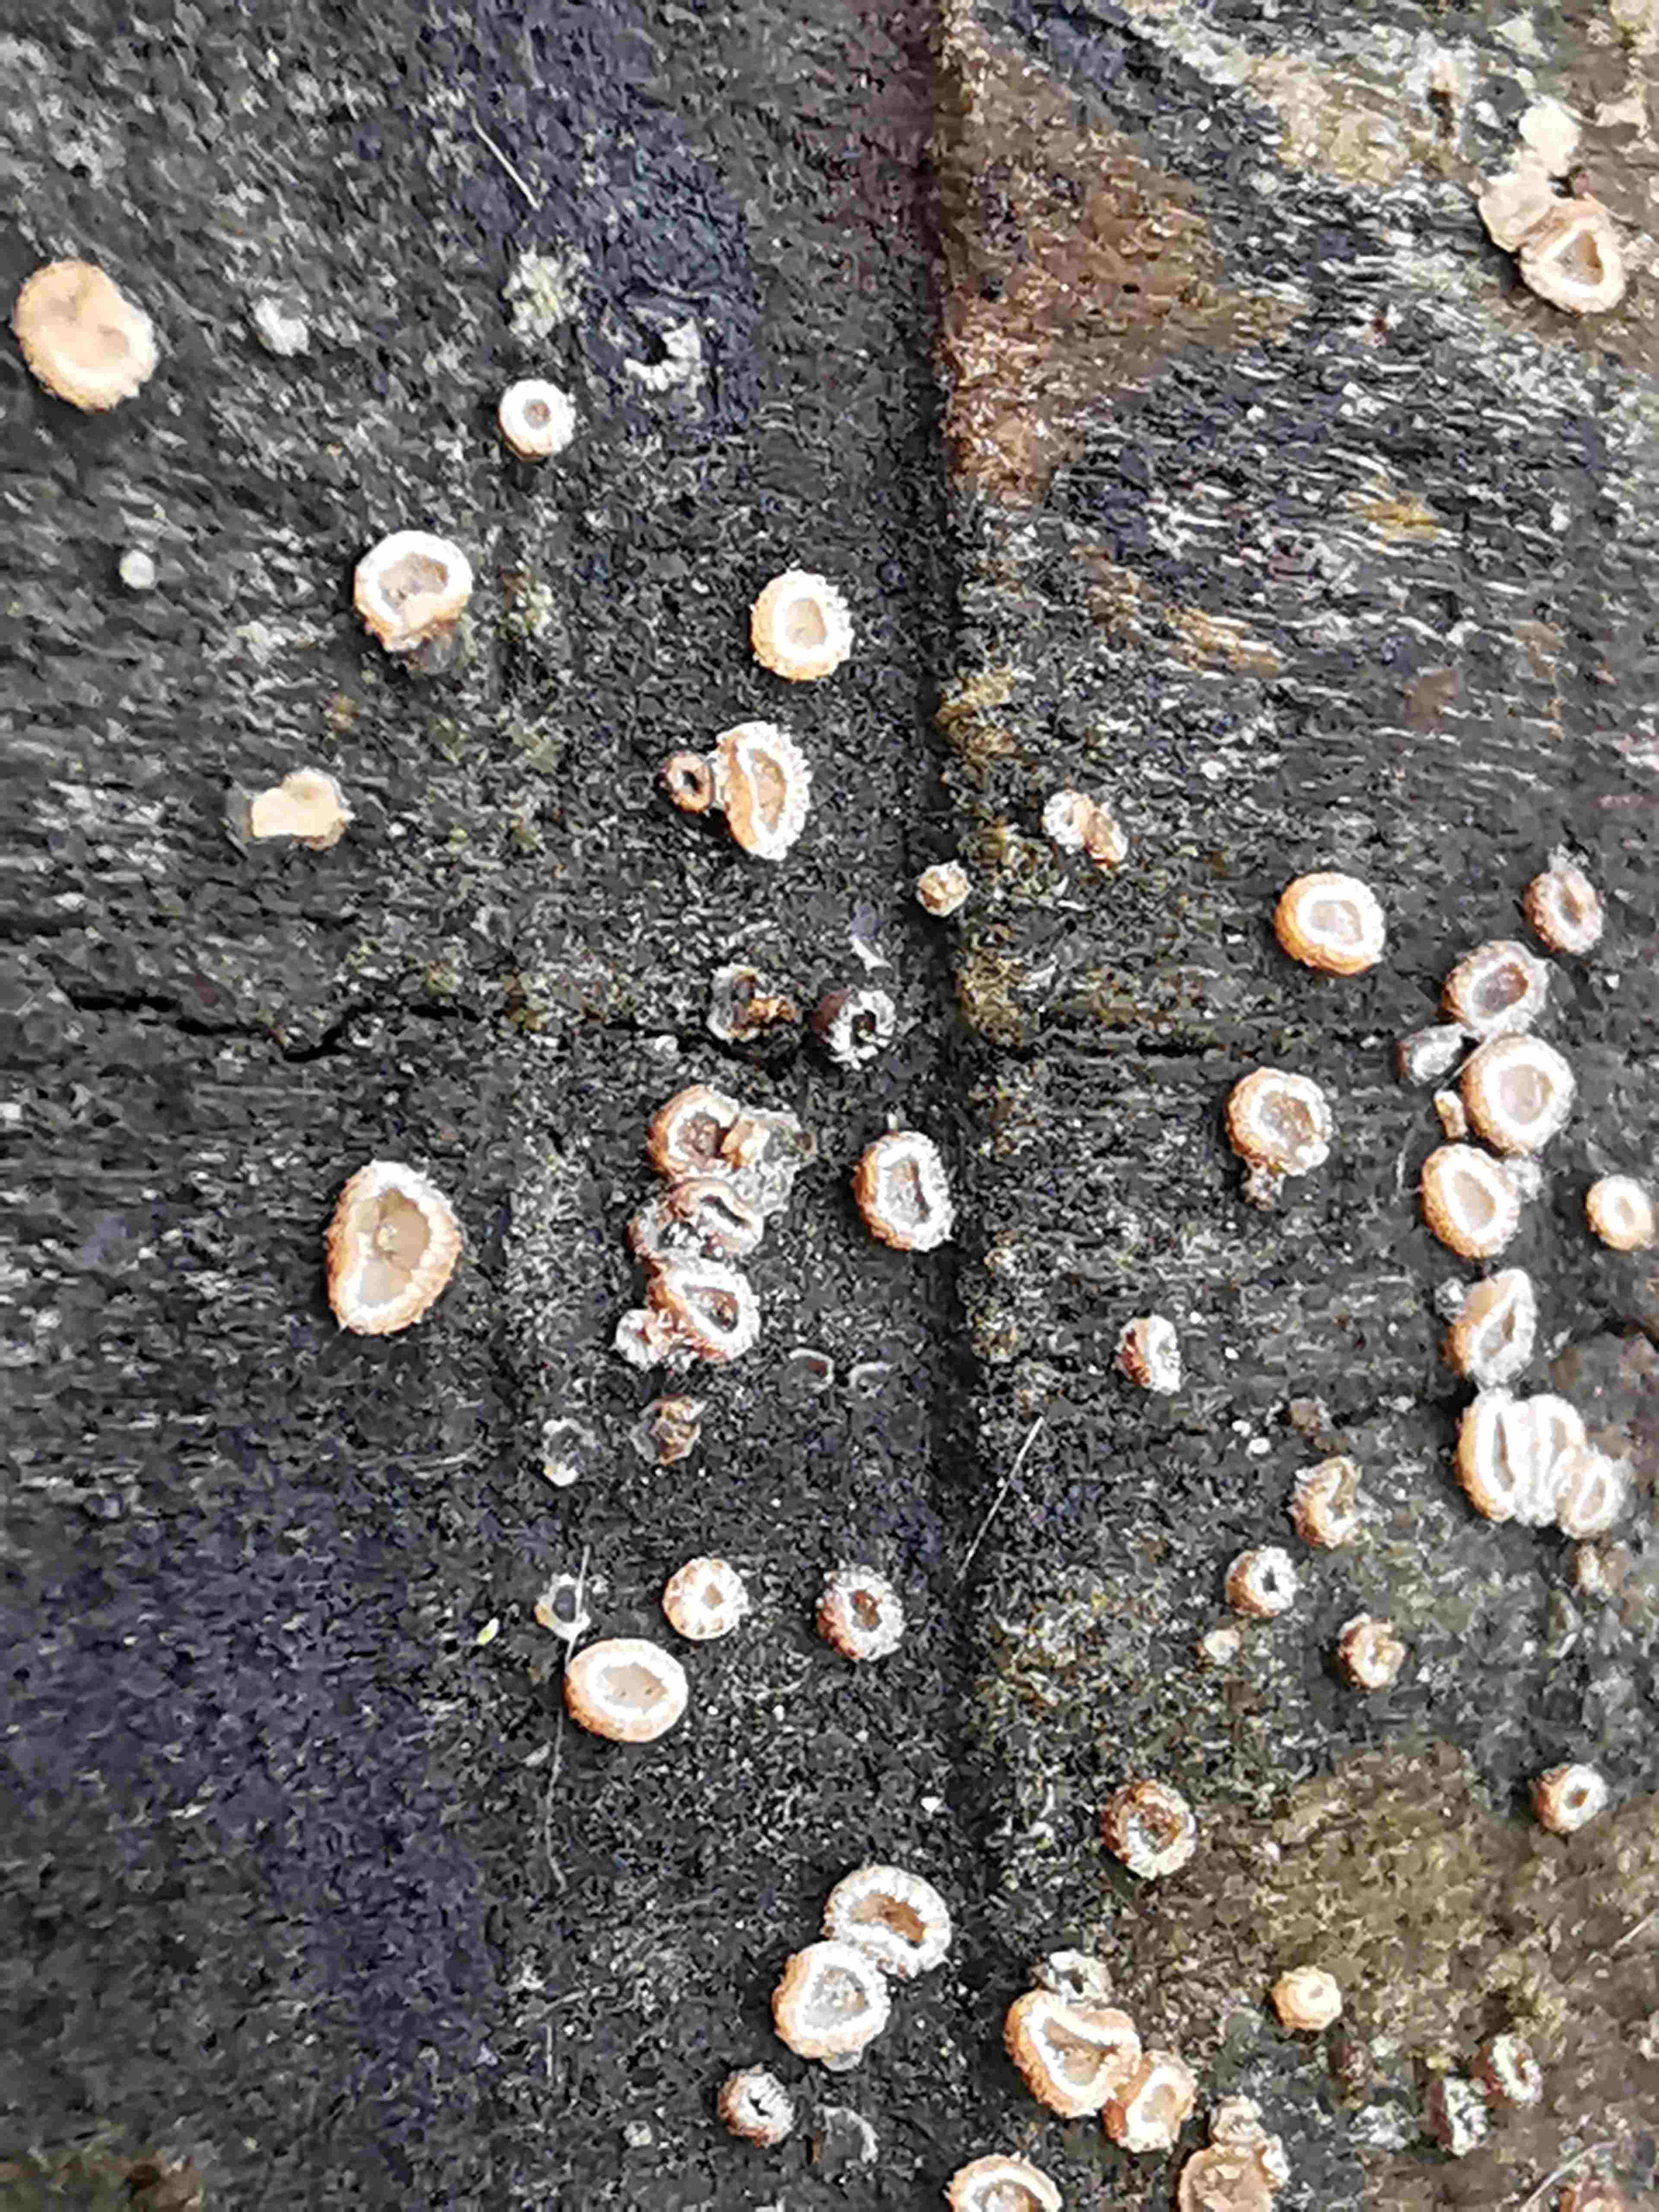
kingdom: Fungi
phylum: Ascomycota
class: Leotiomycetes
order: Helotiales
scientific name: Helotiales
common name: stilkskiveordenen
